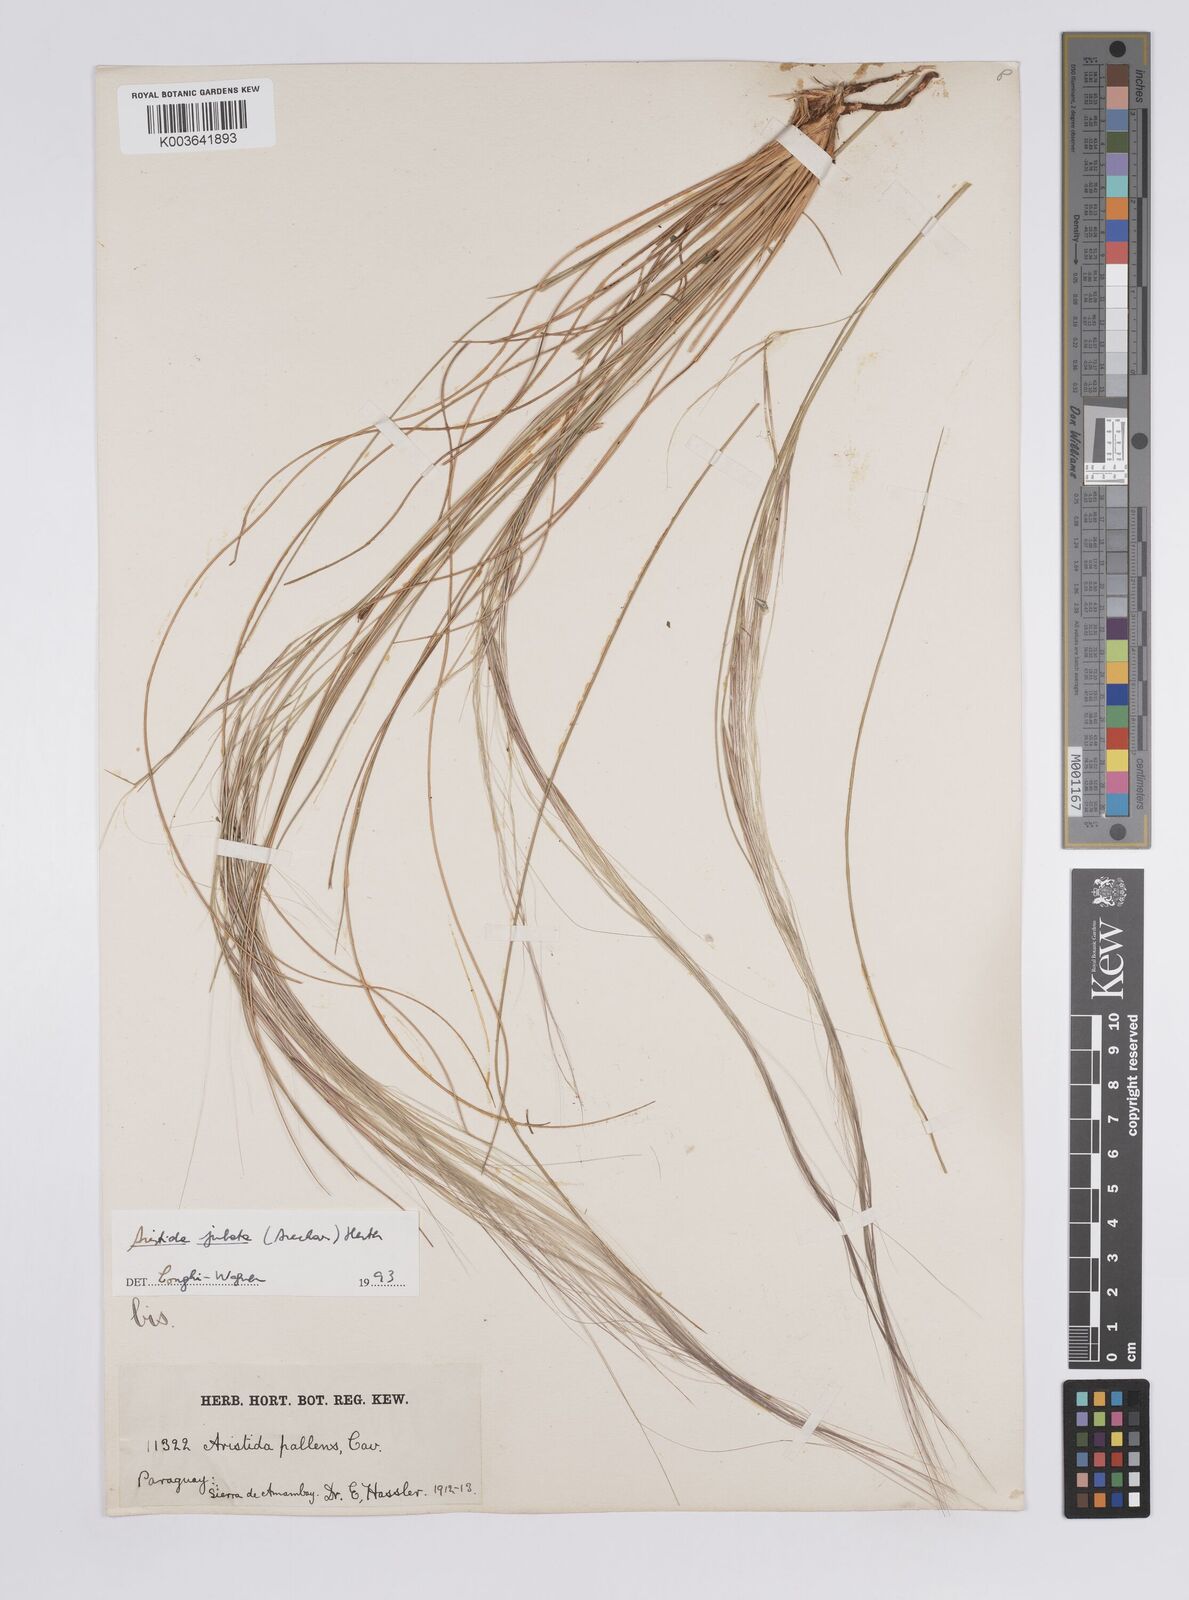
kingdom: Plantae
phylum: Tracheophyta
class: Liliopsida
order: Poales
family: Poaceae
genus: Aristida
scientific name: Aristida jubata
